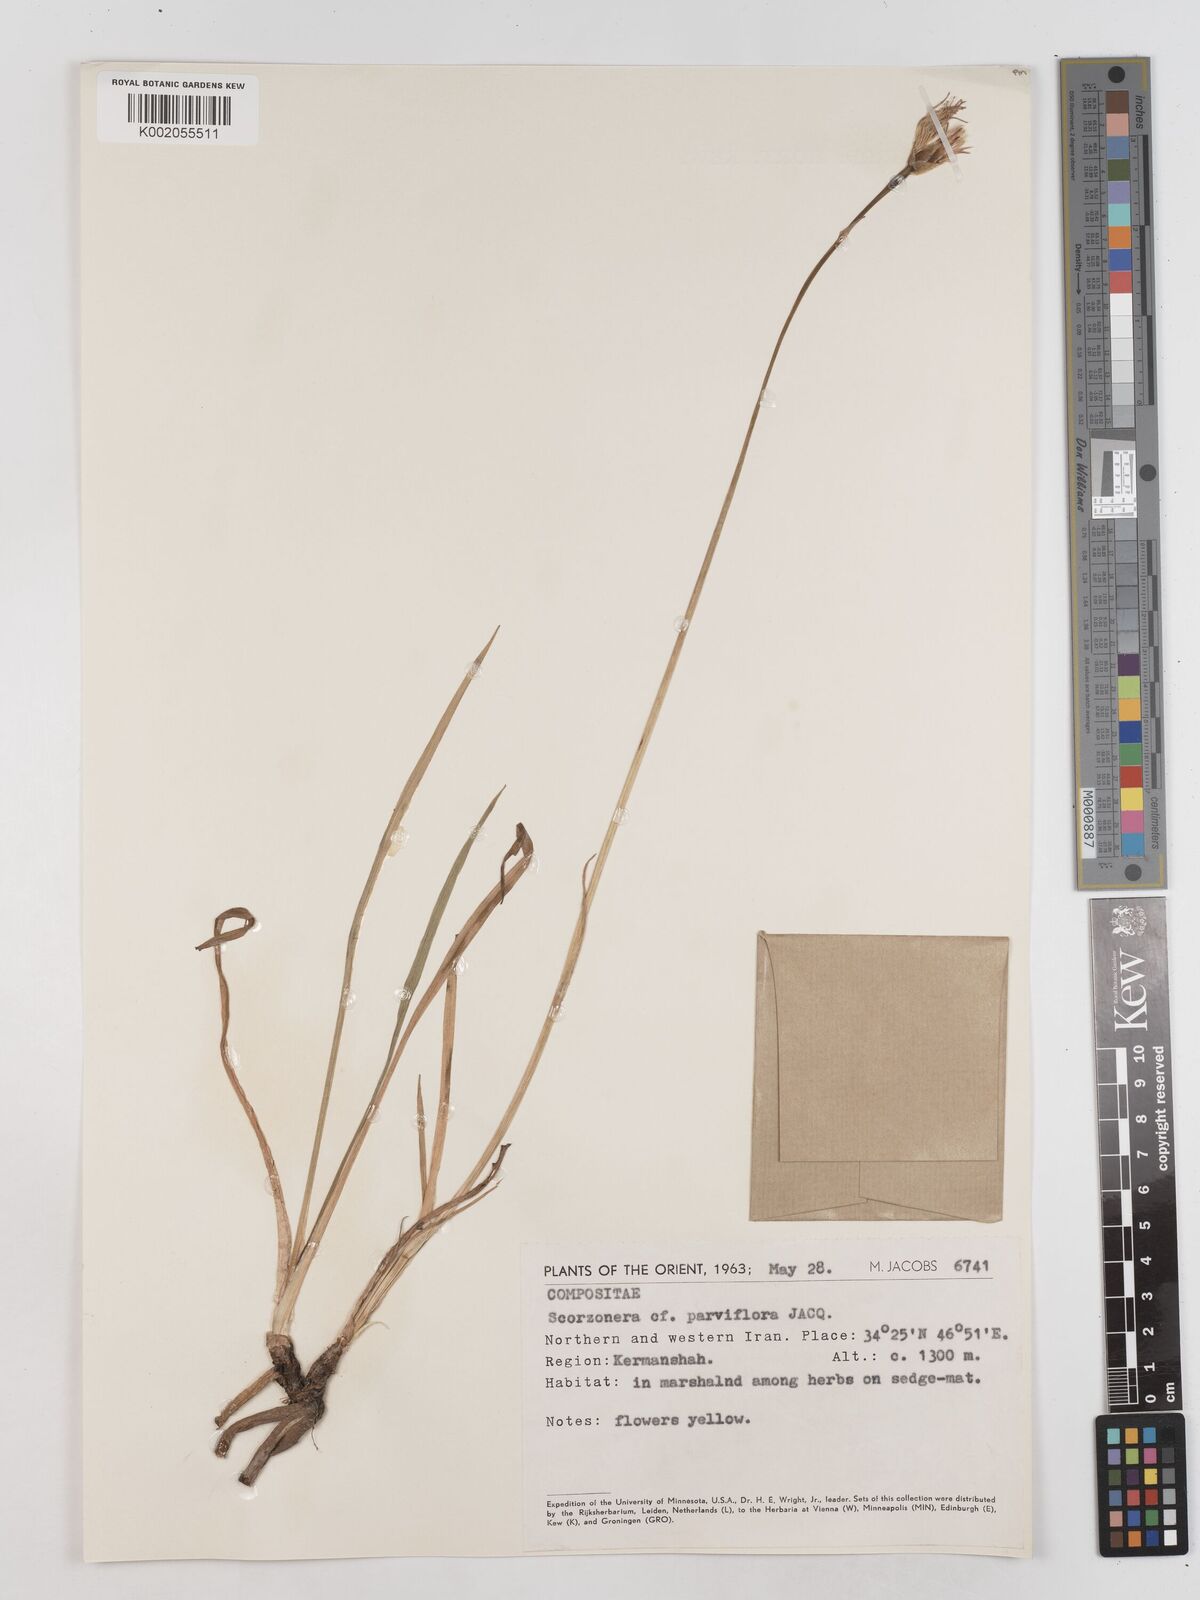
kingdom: Plantae
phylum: Tracheophyta
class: Magnoliopsida
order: Asterales
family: Asteraceae
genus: Scorzonera
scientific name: Scorzonera parviflora
